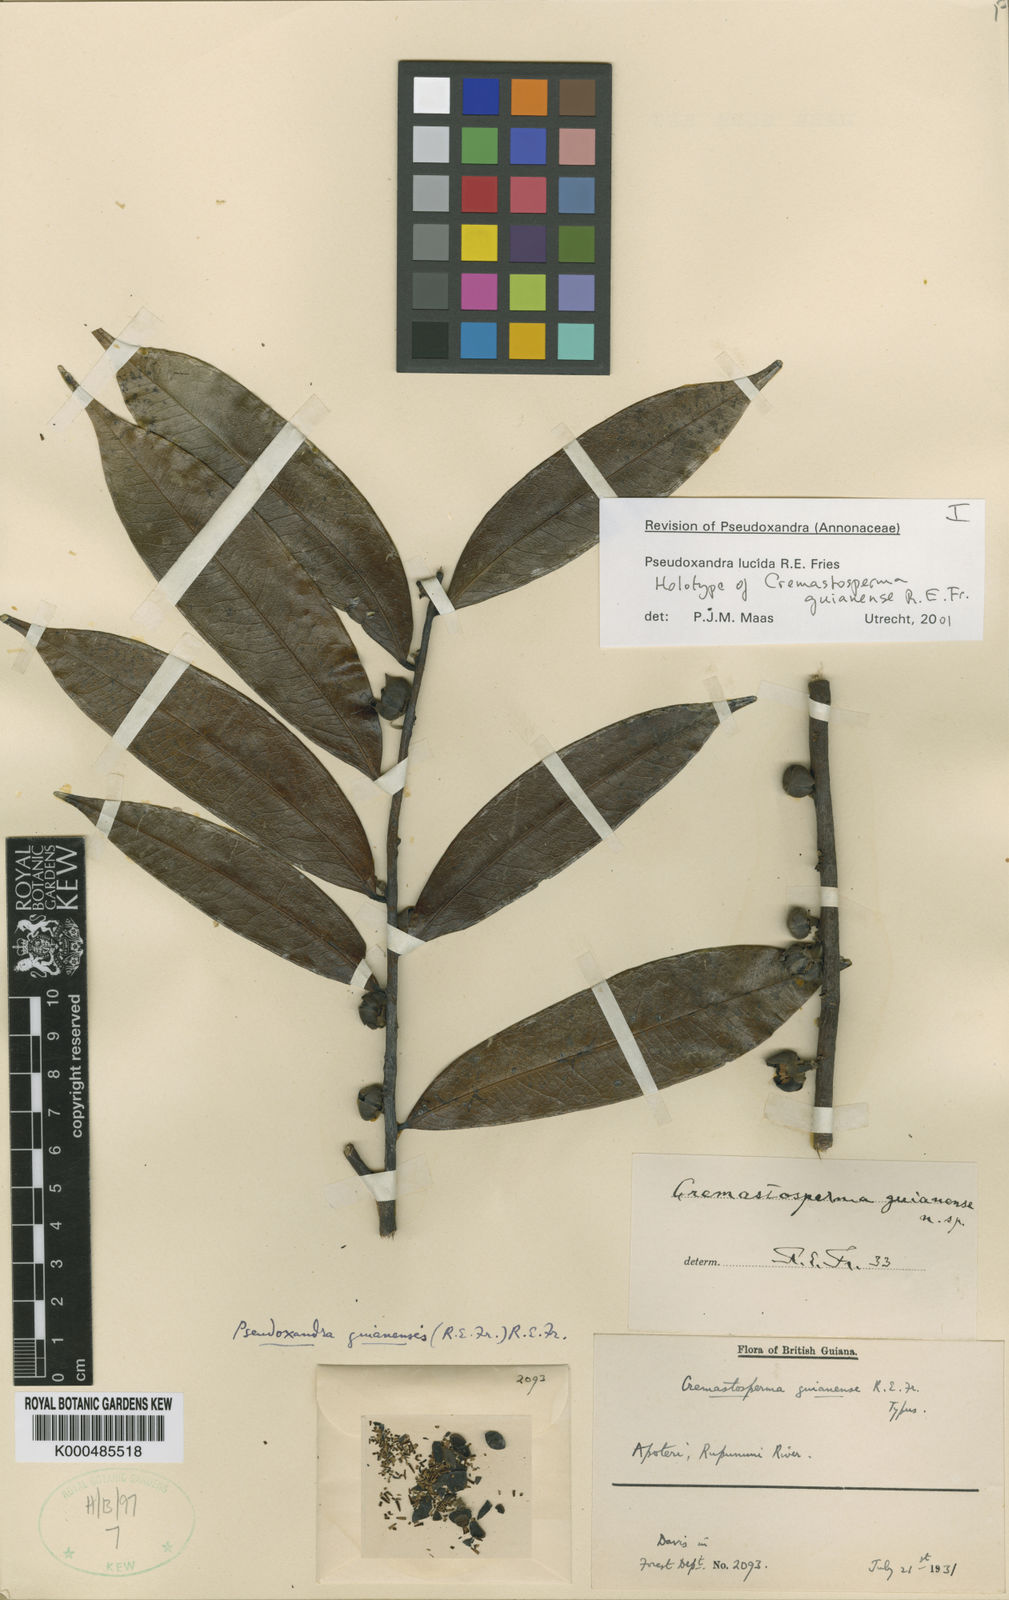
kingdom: Plantae
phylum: Tracheophyta
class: Magnoliopsida
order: Magnoliales
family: Annonaceae
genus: Pseudoxandra
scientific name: Pseudoxandra lucida
